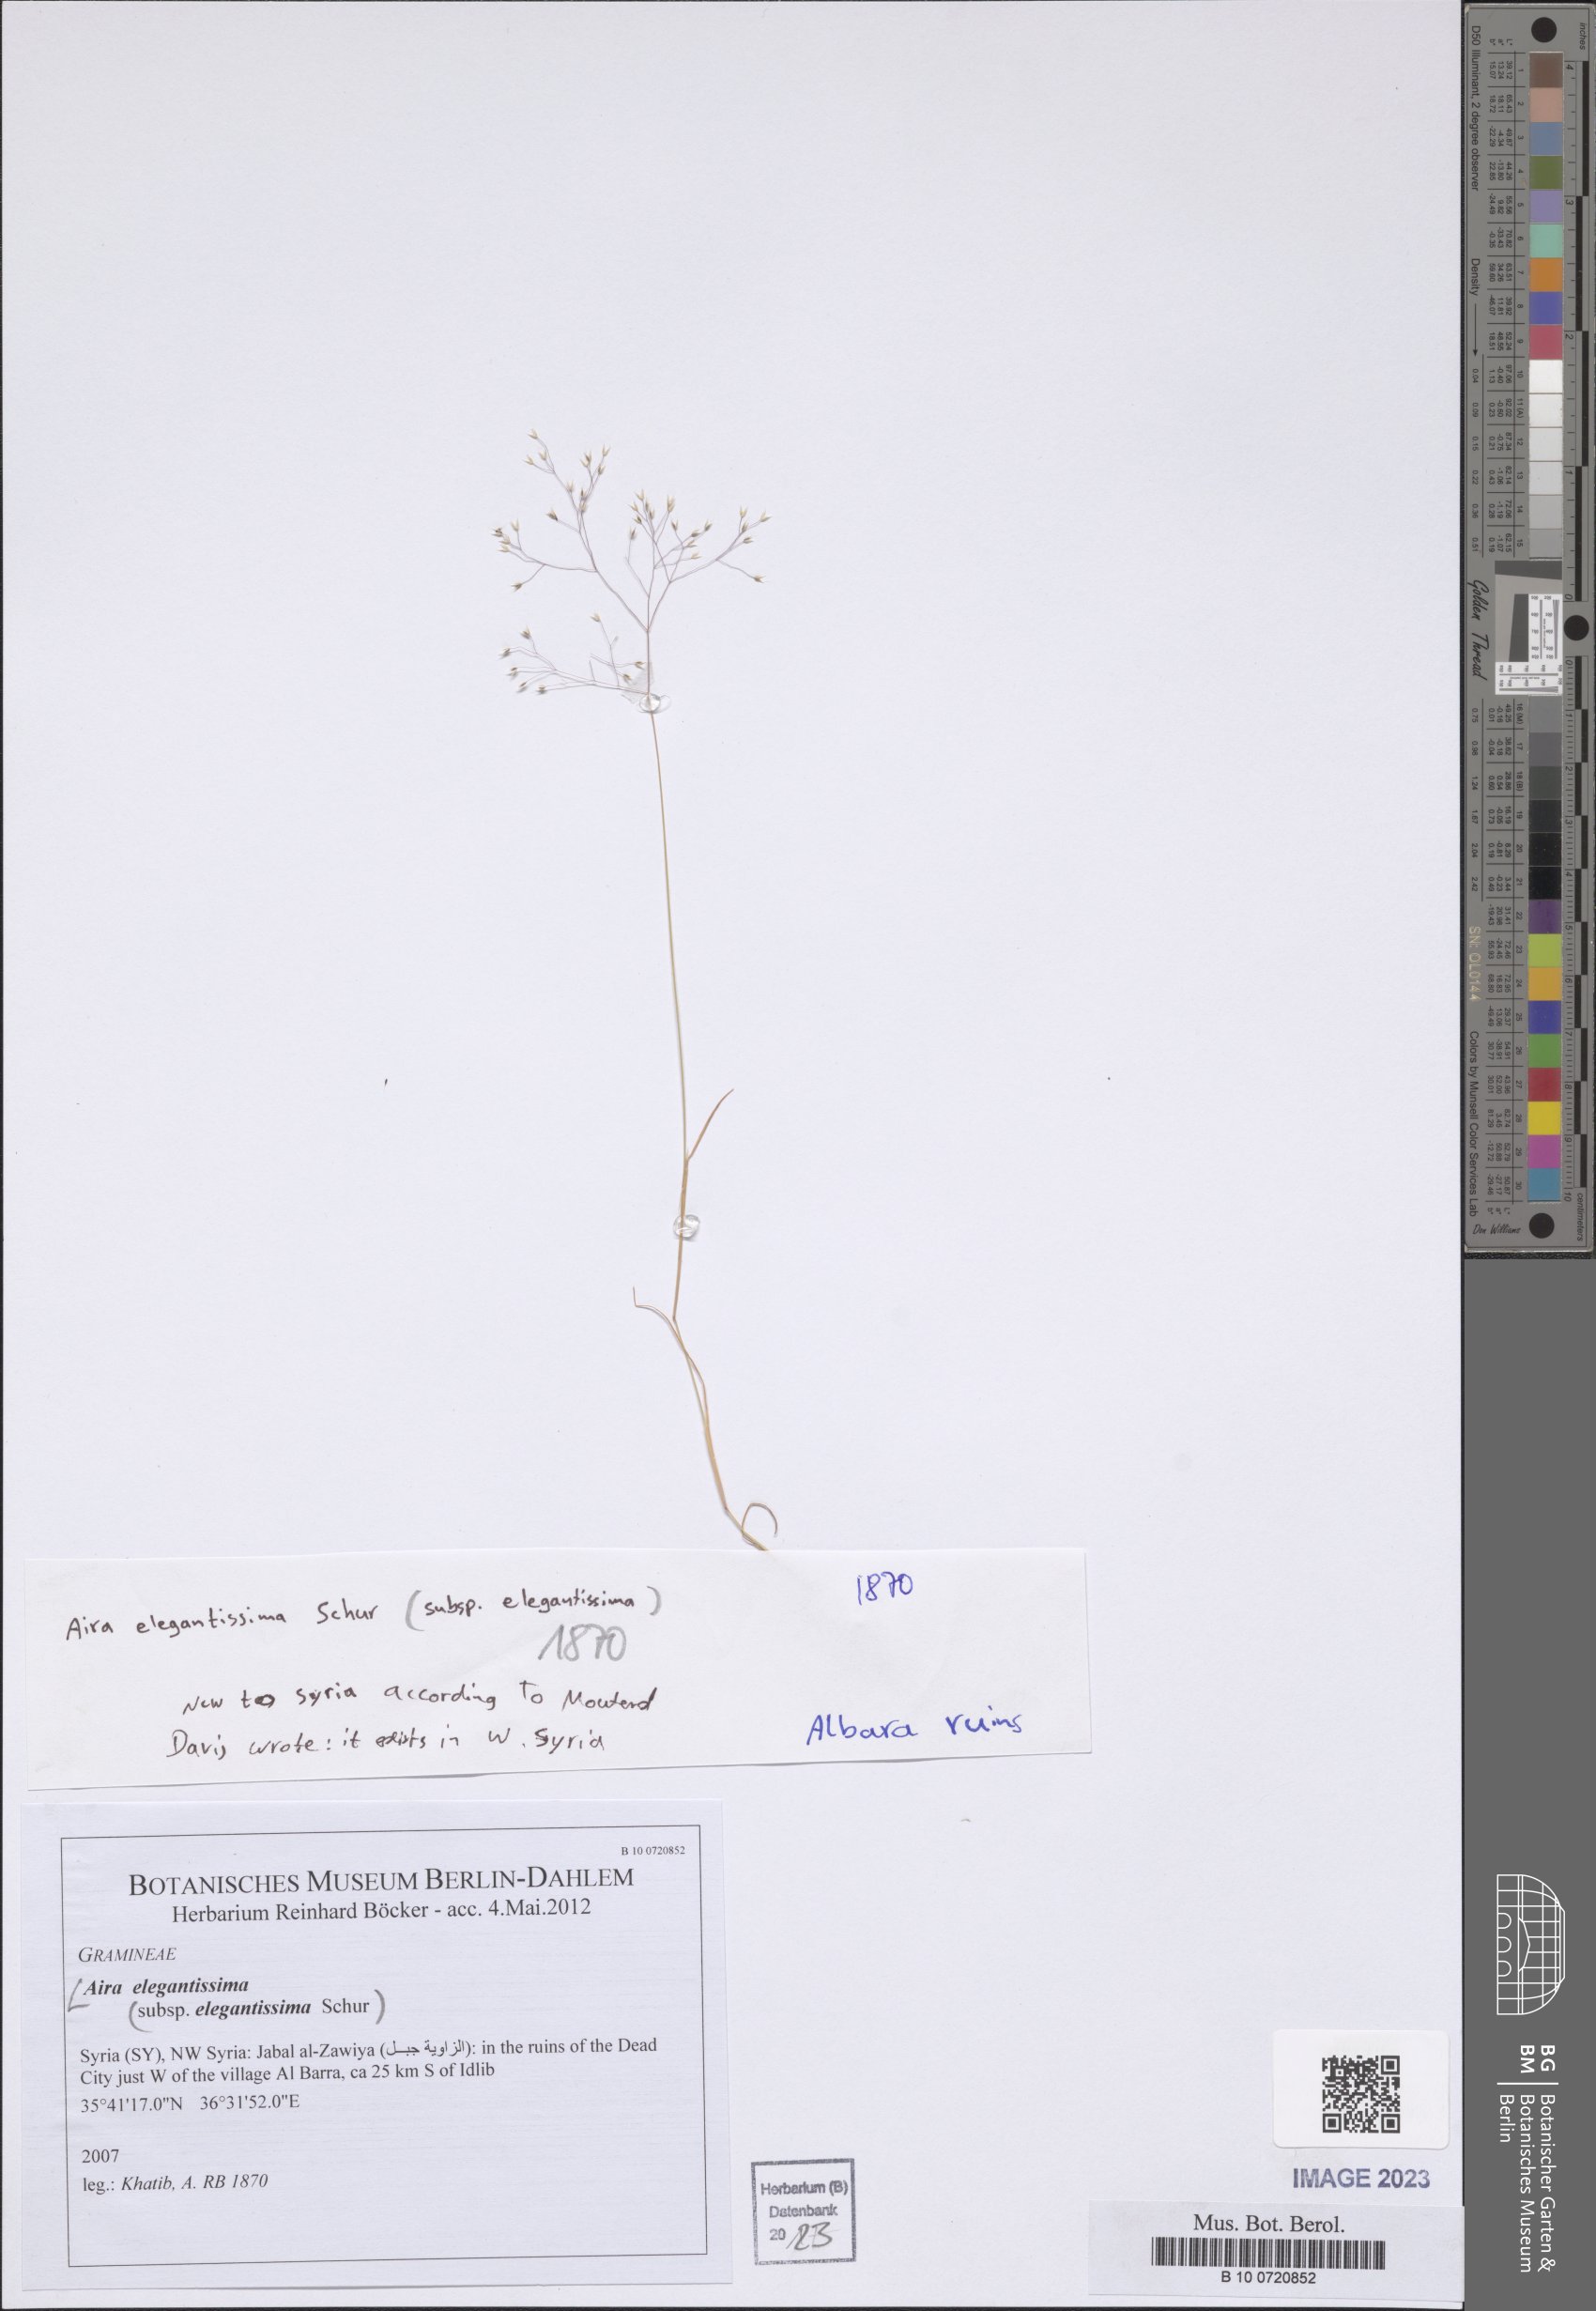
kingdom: Plantae
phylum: Tracheophyta
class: Liliopsida
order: Poales
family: Poaceae
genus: Aira
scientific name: Aira elegans
